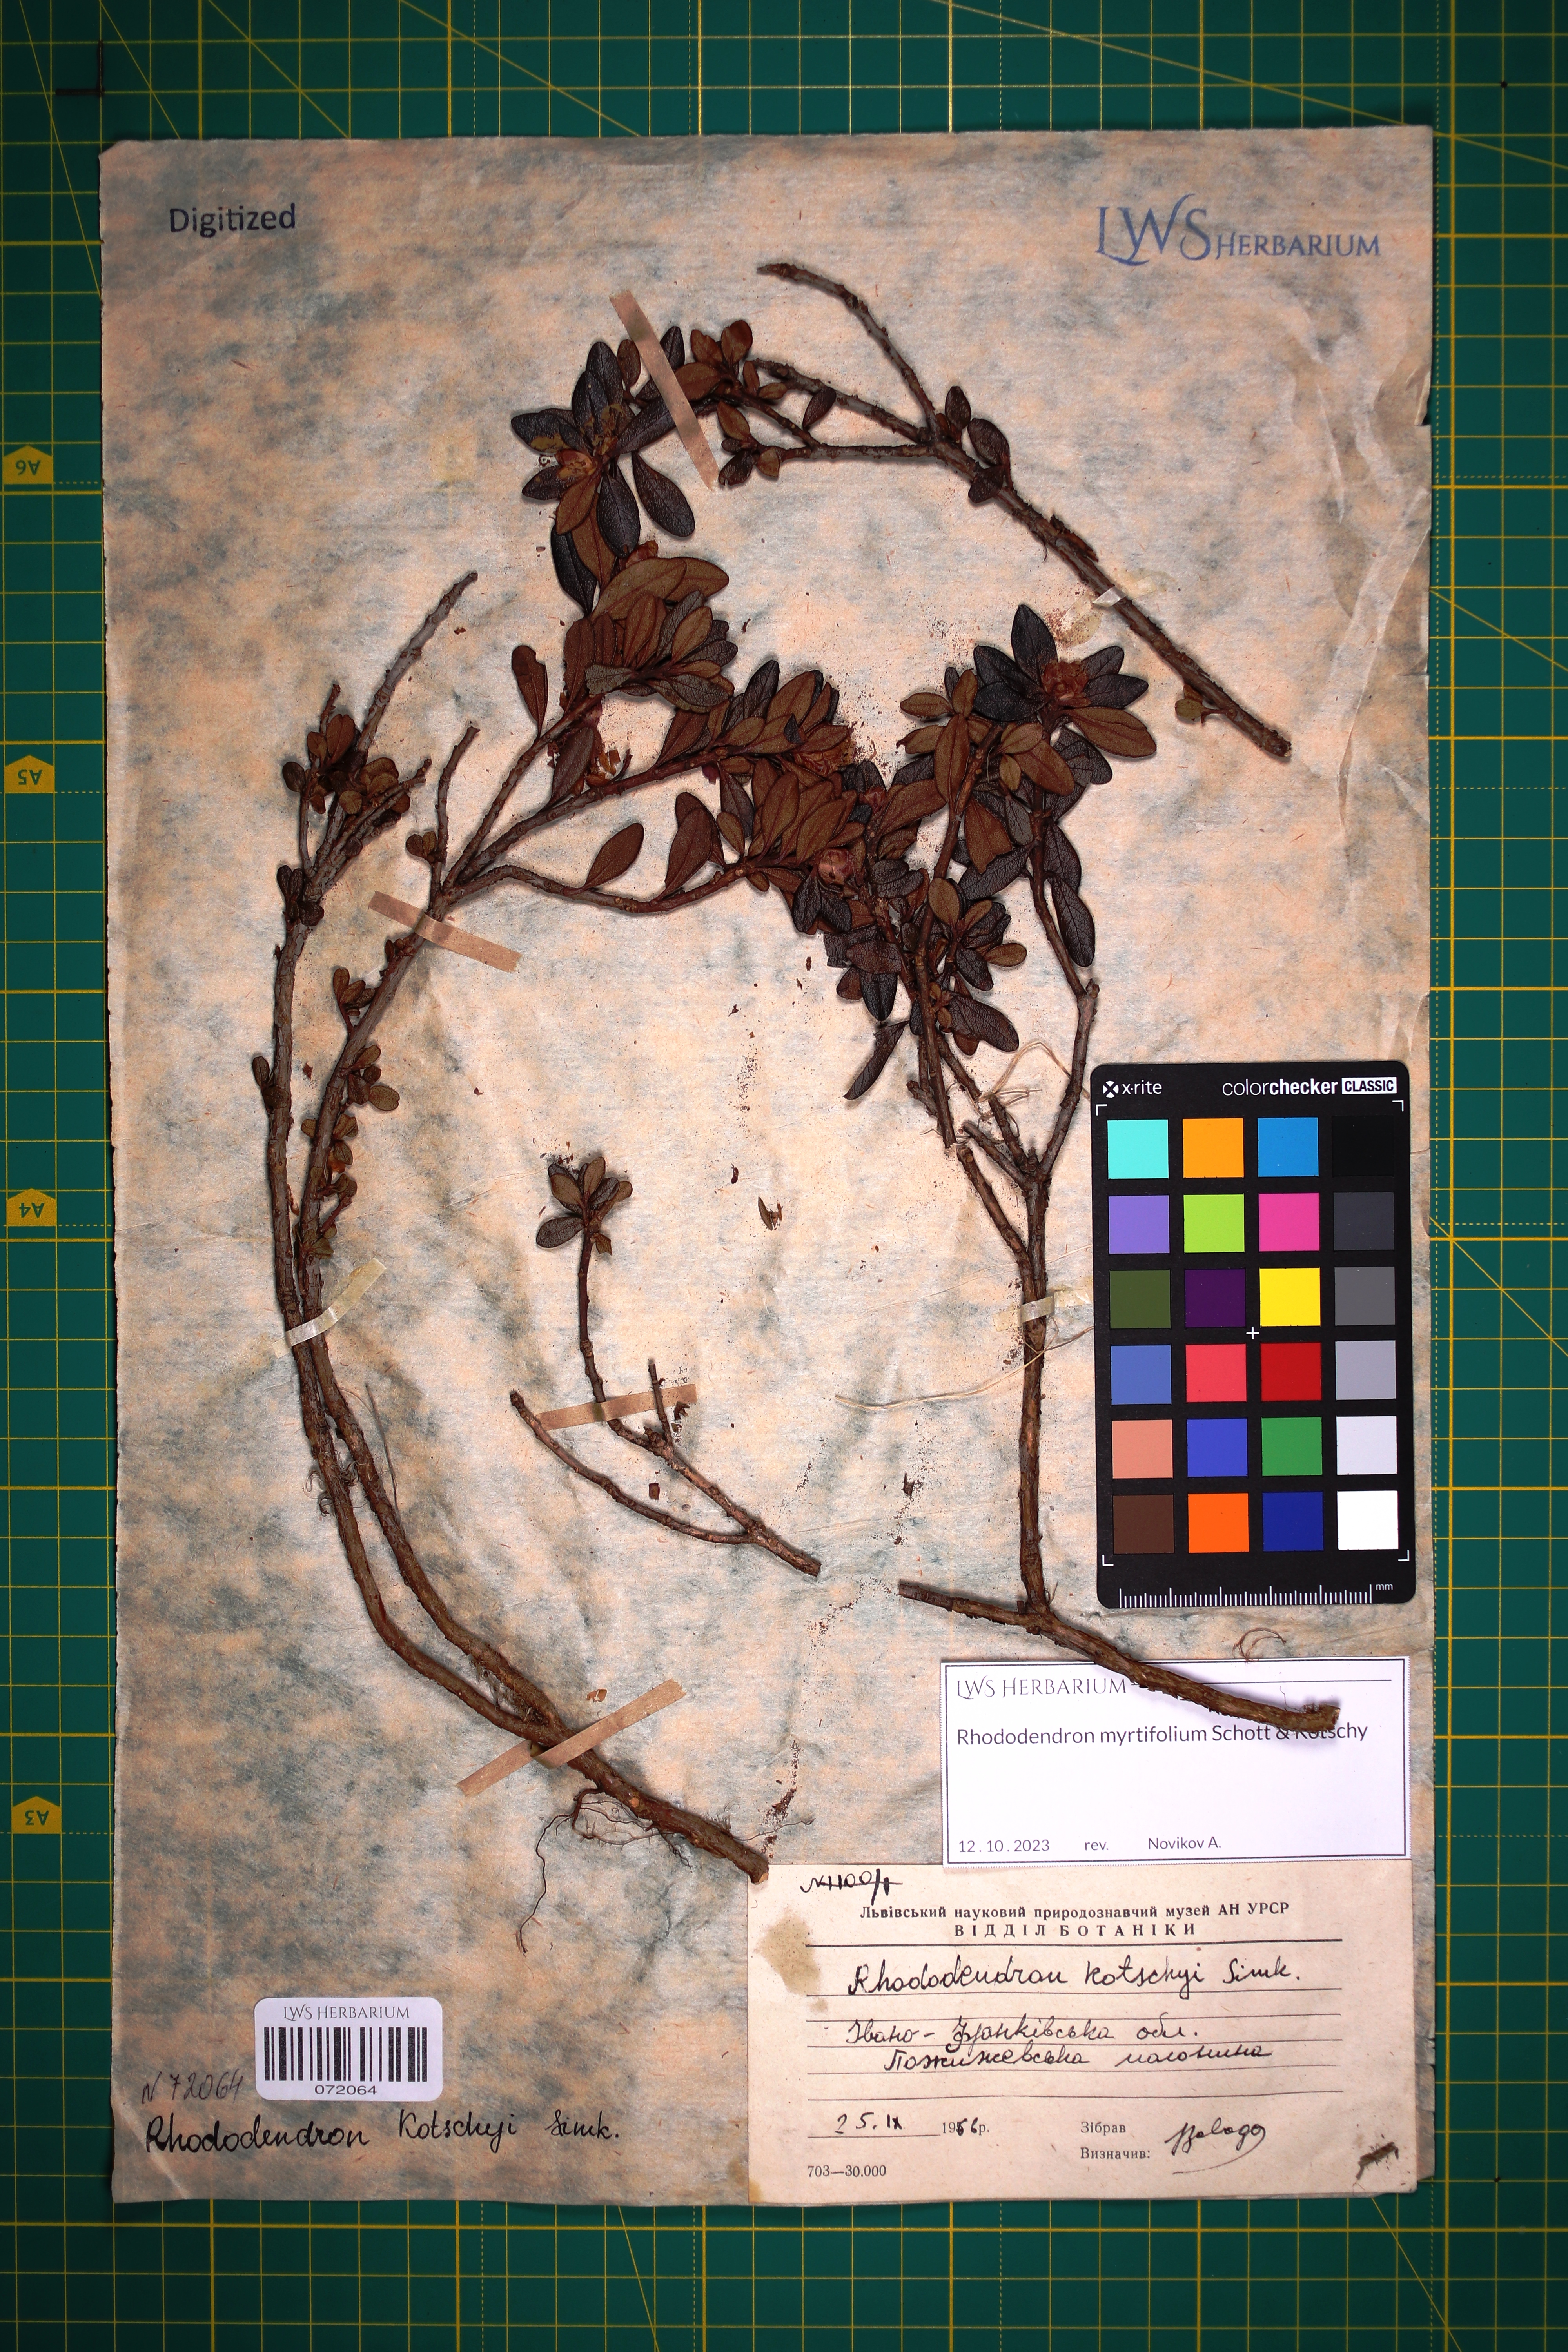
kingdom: Plantae
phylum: Tracheophyta
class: Magnoliopsida
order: Ericales
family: Ericaceae
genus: Rhododendron
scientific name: Rhododendron kotschyi
